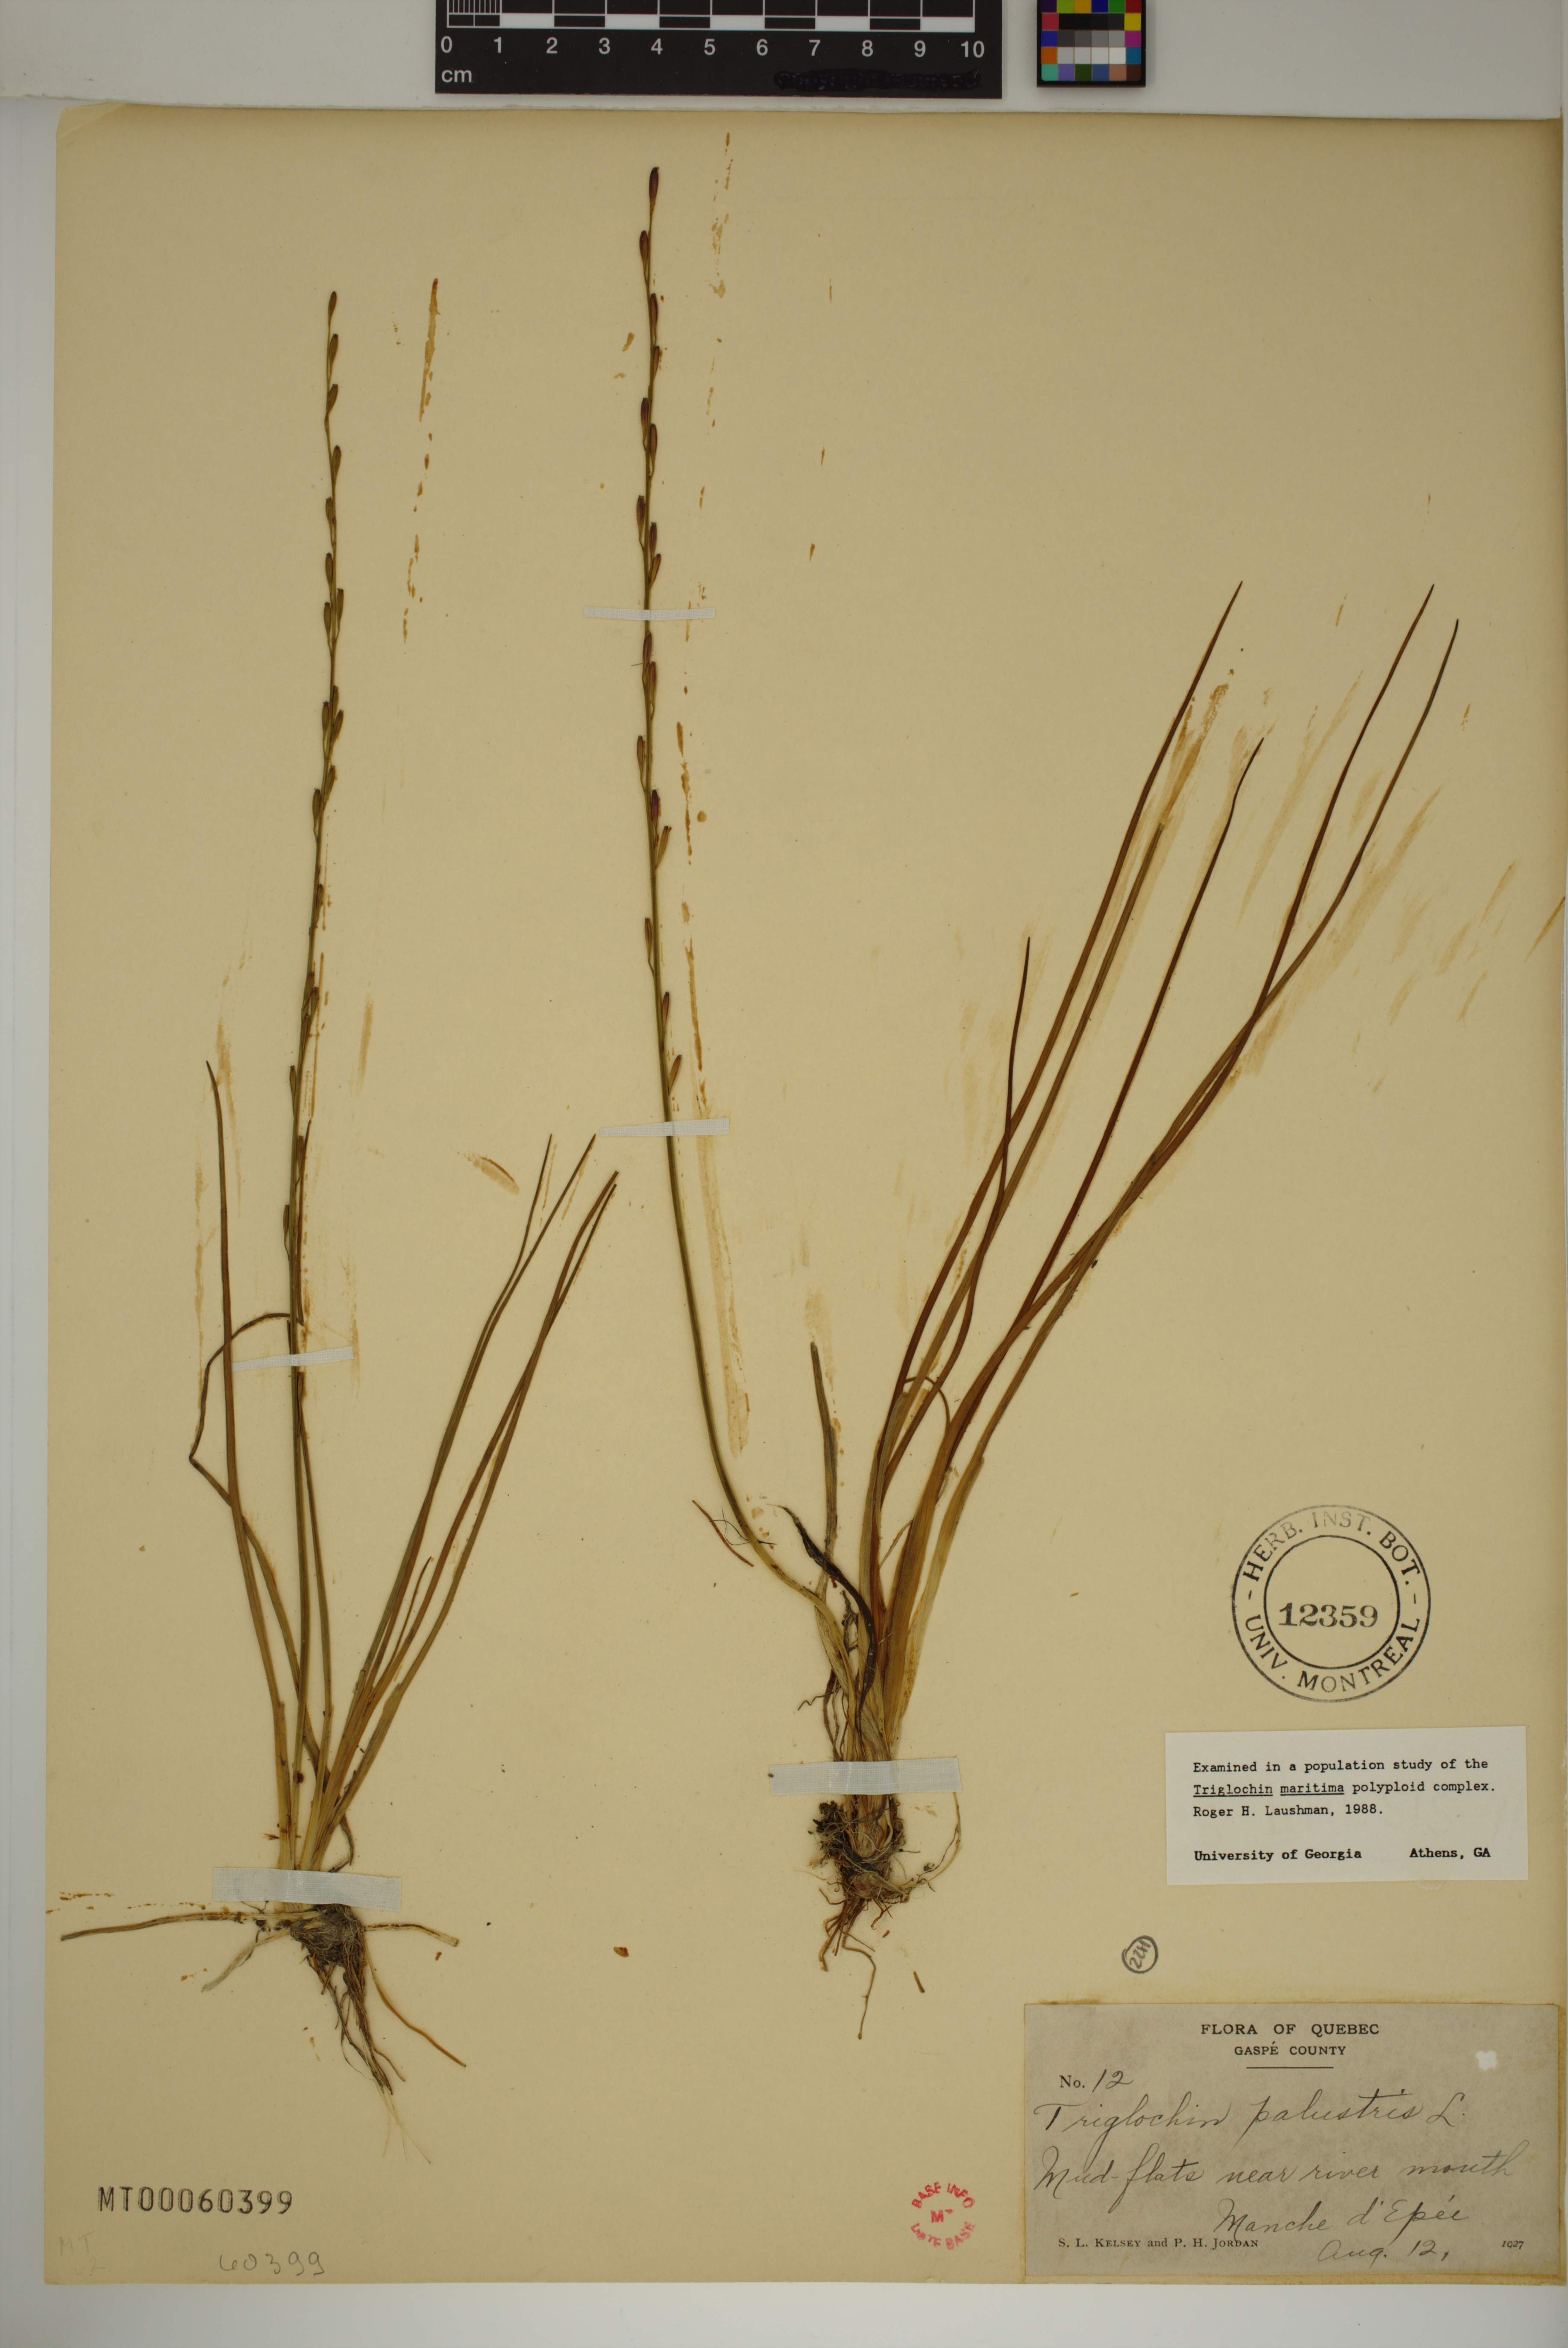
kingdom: Plantae
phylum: Tracheophyta
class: Liliopsida
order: Alismatales
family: Juncaginaceae
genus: Triglochin
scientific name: Triglochin palustris
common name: Marsh arrowgrass
